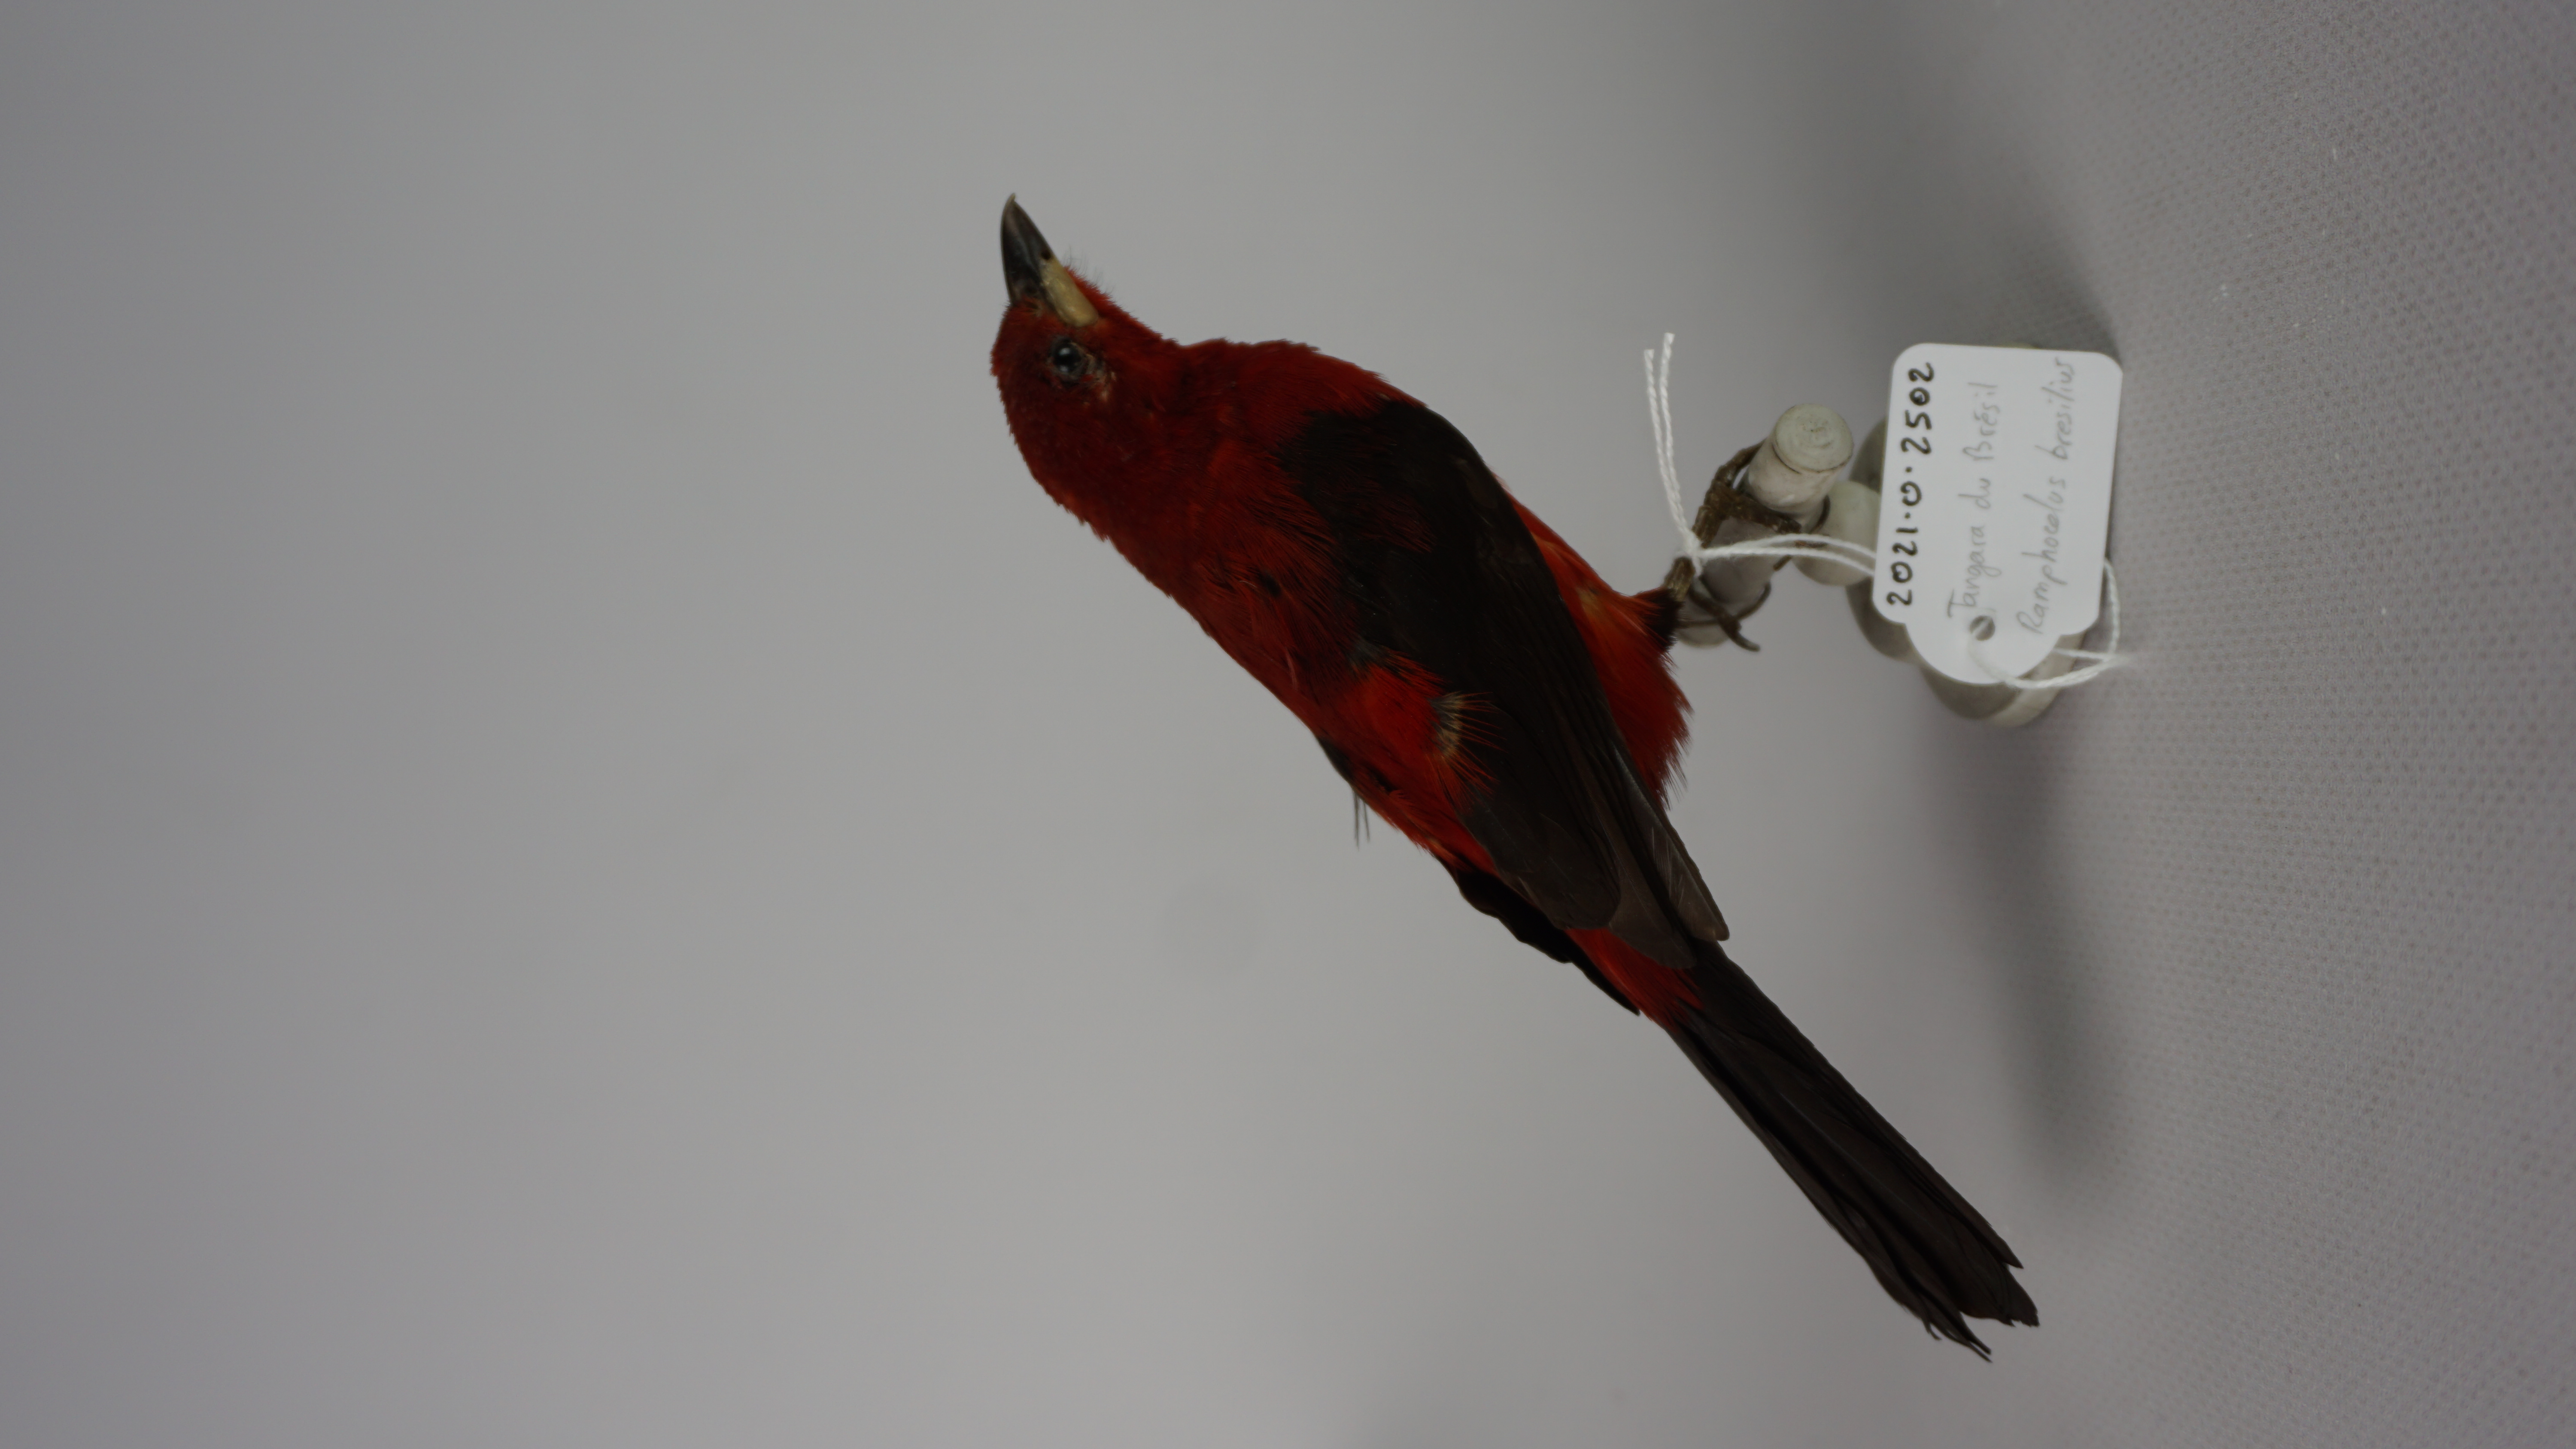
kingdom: Animalia
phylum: Chordata
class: Aves
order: Passeriformes
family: Thraupidae
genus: Ramphocelus
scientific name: Ramphocelus bresilia
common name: Brazilian tanager
